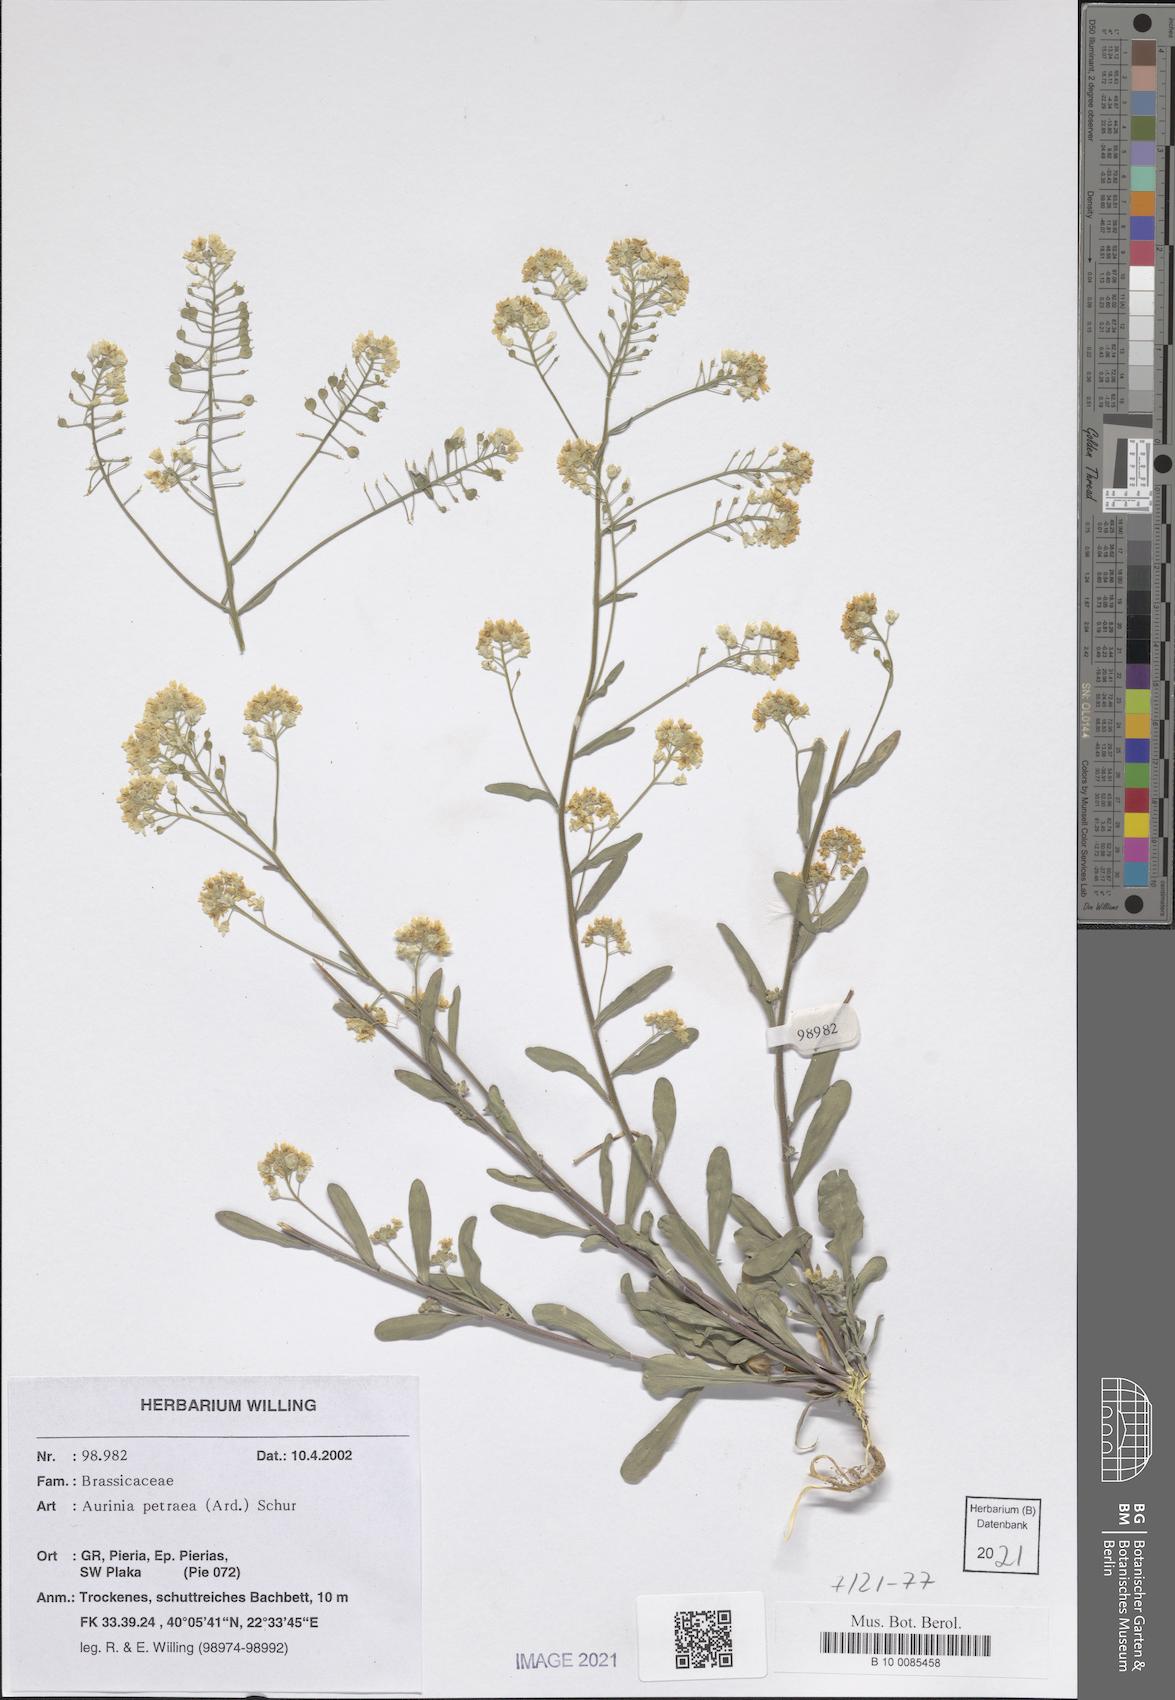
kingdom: Plantae
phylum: Tracheophyta
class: Magnoliopsida
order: Brassicales
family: Brassicaceae
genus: Aurinia
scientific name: Aurinia petraea
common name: Goldentuft
